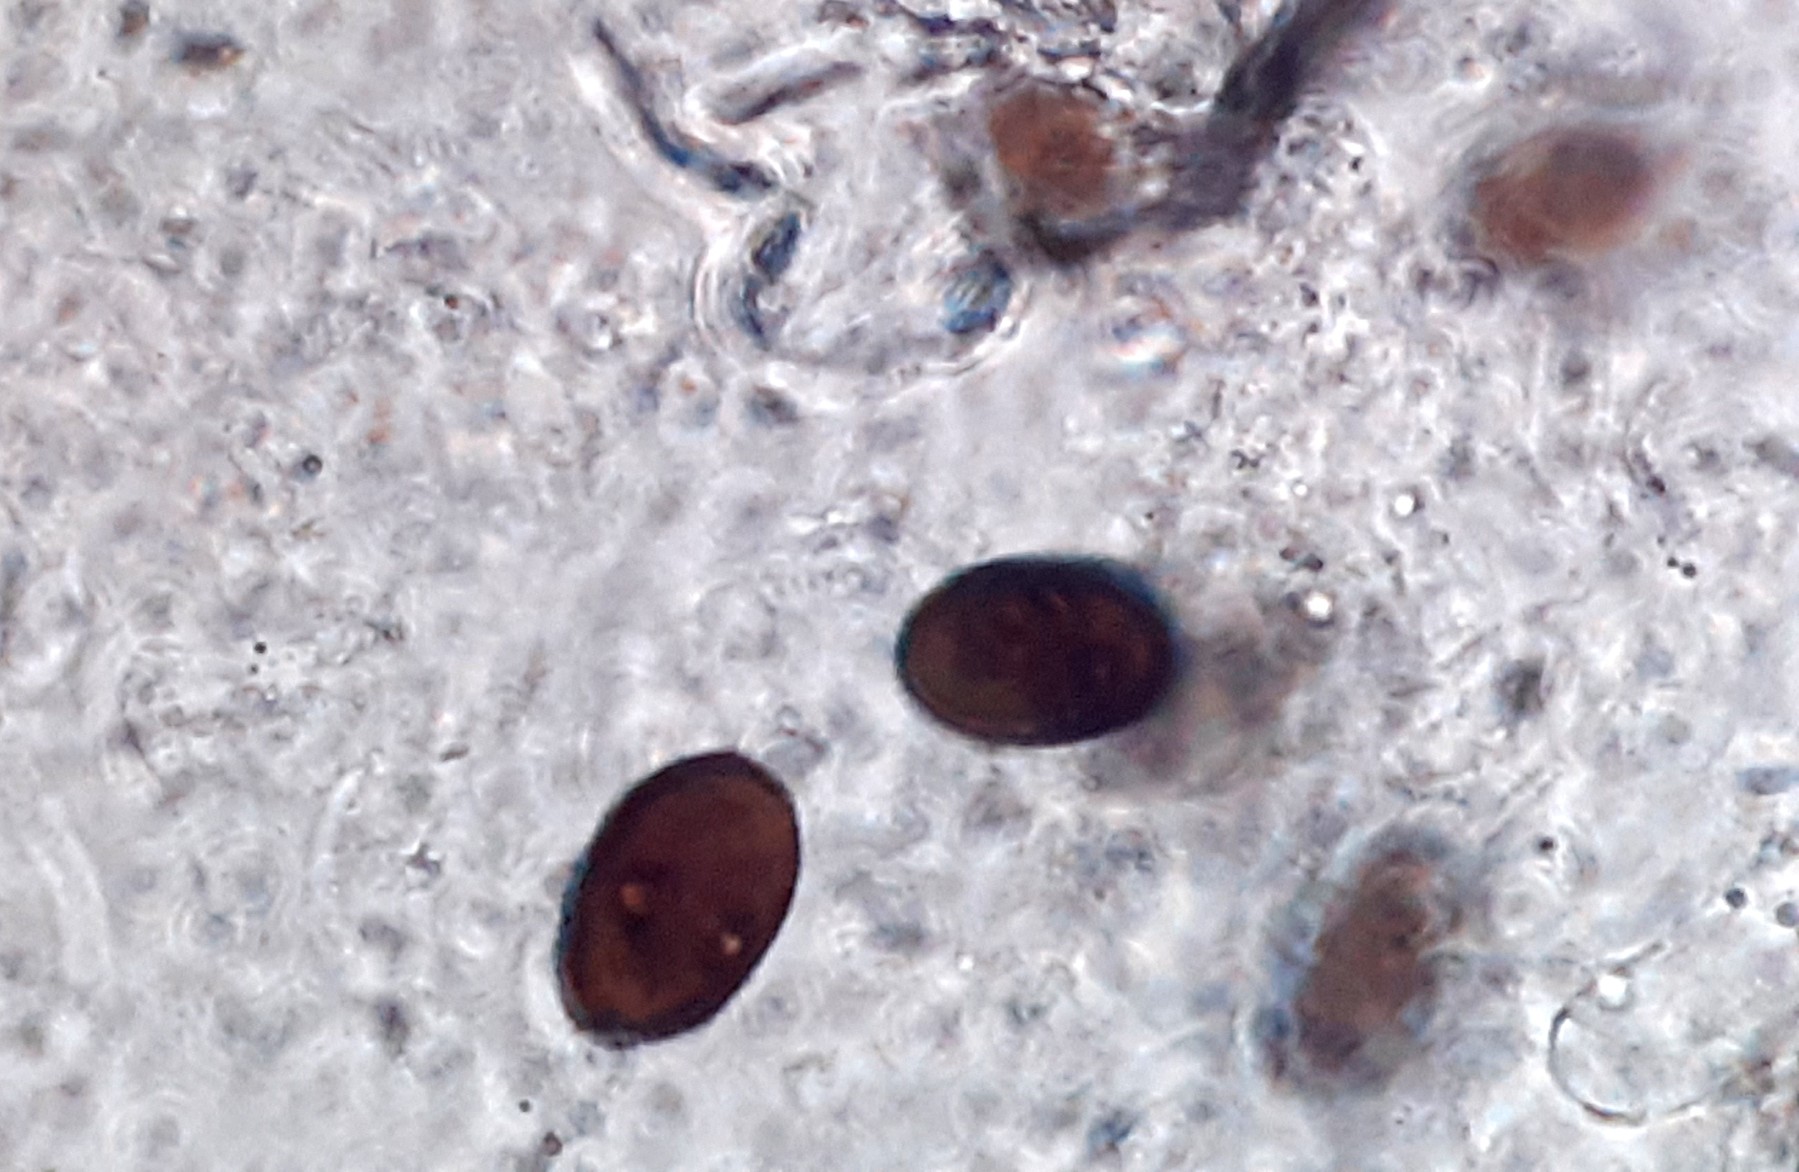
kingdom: Fungi
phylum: Ascomycota
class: Sordariomycetes
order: Amphisphaeriales
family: Amphisphaeriaceae
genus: Amphisphaerella
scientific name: Amphisphaerella xylostei
